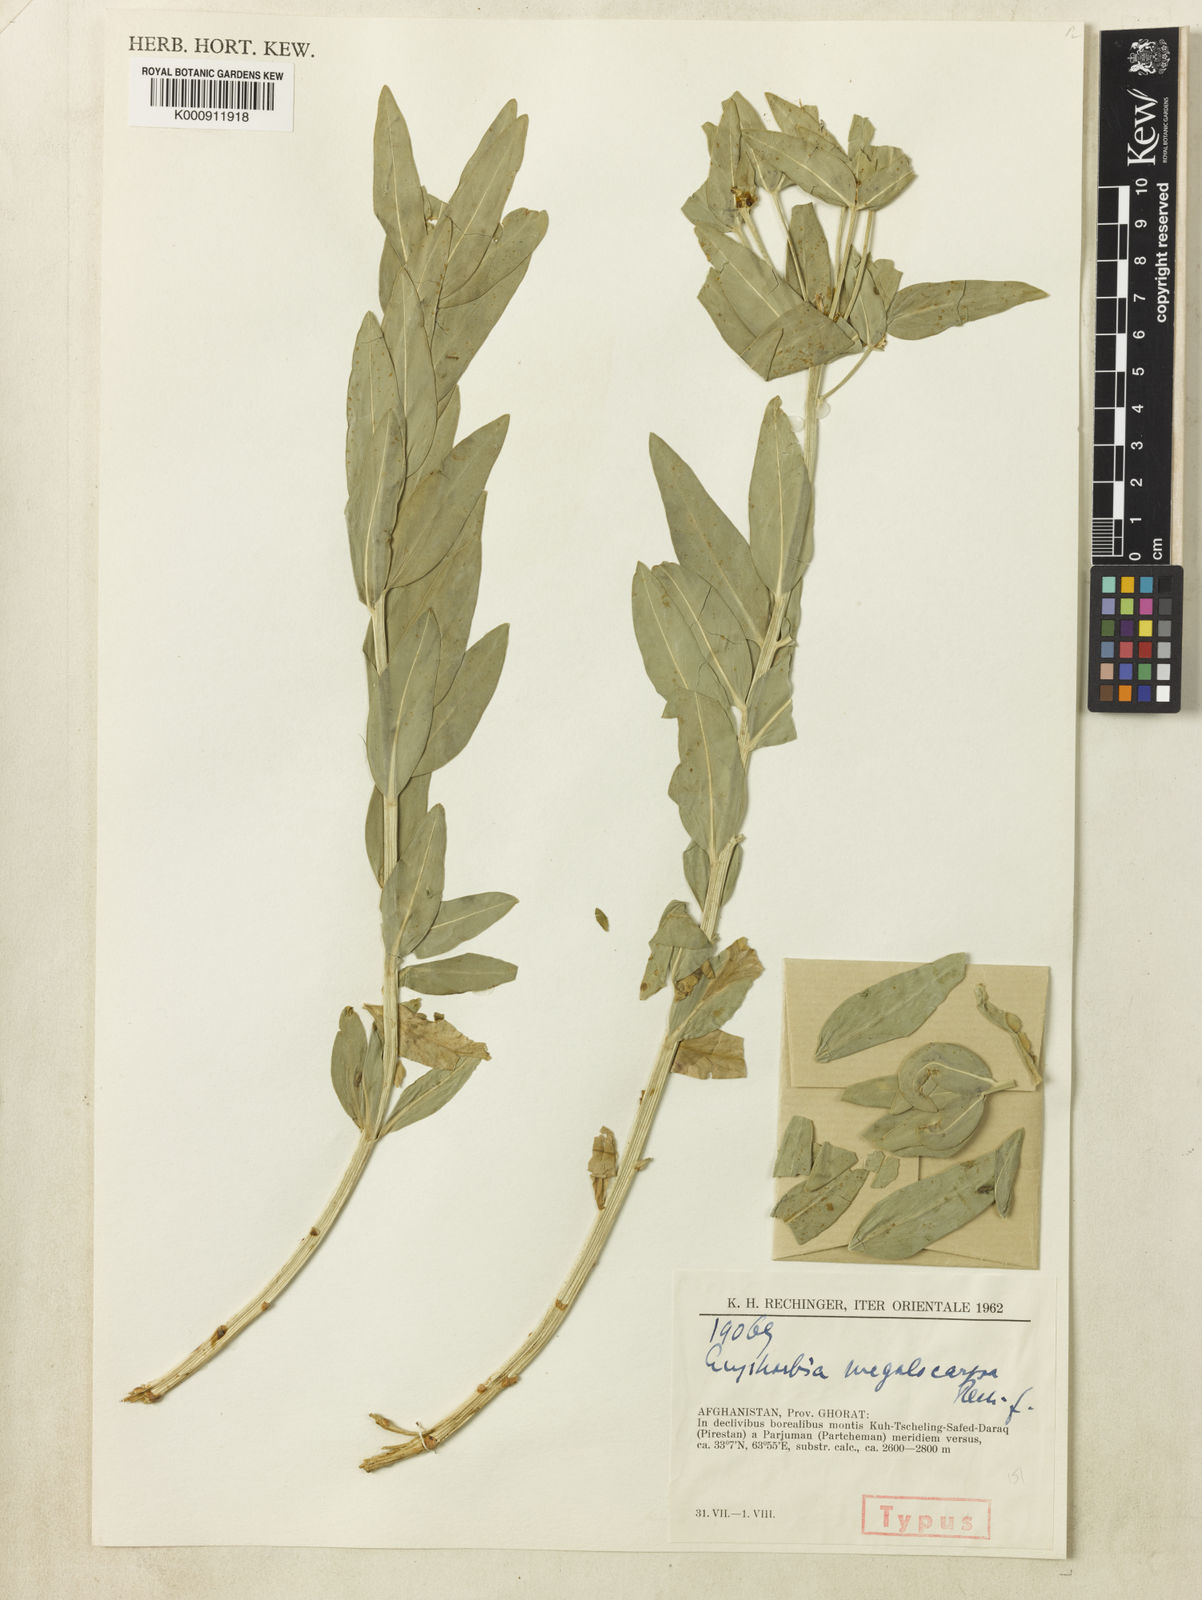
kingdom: Plantae
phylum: Tracheophyta
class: Magnoliopsida
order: Malpighiales
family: Euphorbiaceae
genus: Euphorbia
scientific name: Euphorbia megalocarpa
